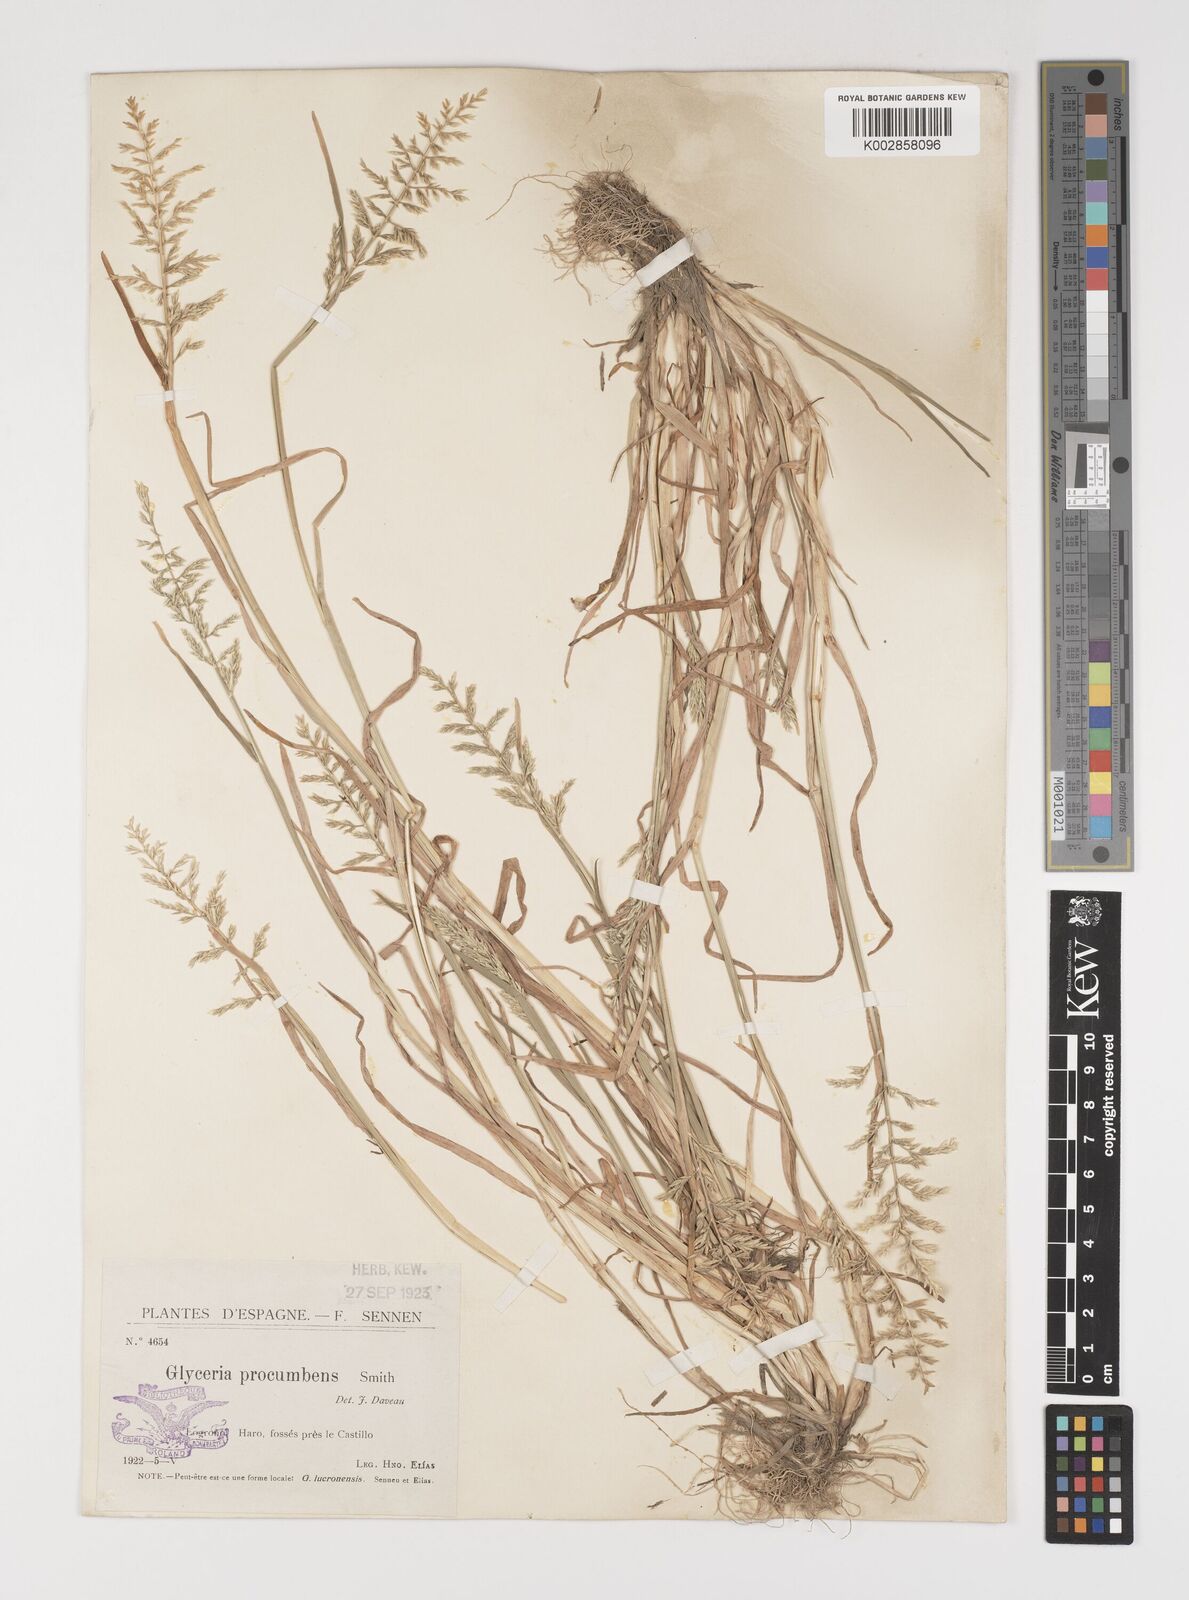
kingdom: Plantae
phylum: Tracheophyta
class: Liliopsida
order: Poales
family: Poaceae
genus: Puccinellia
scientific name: Puccinellia rupestris
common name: Stiff saltmarsh-grass
